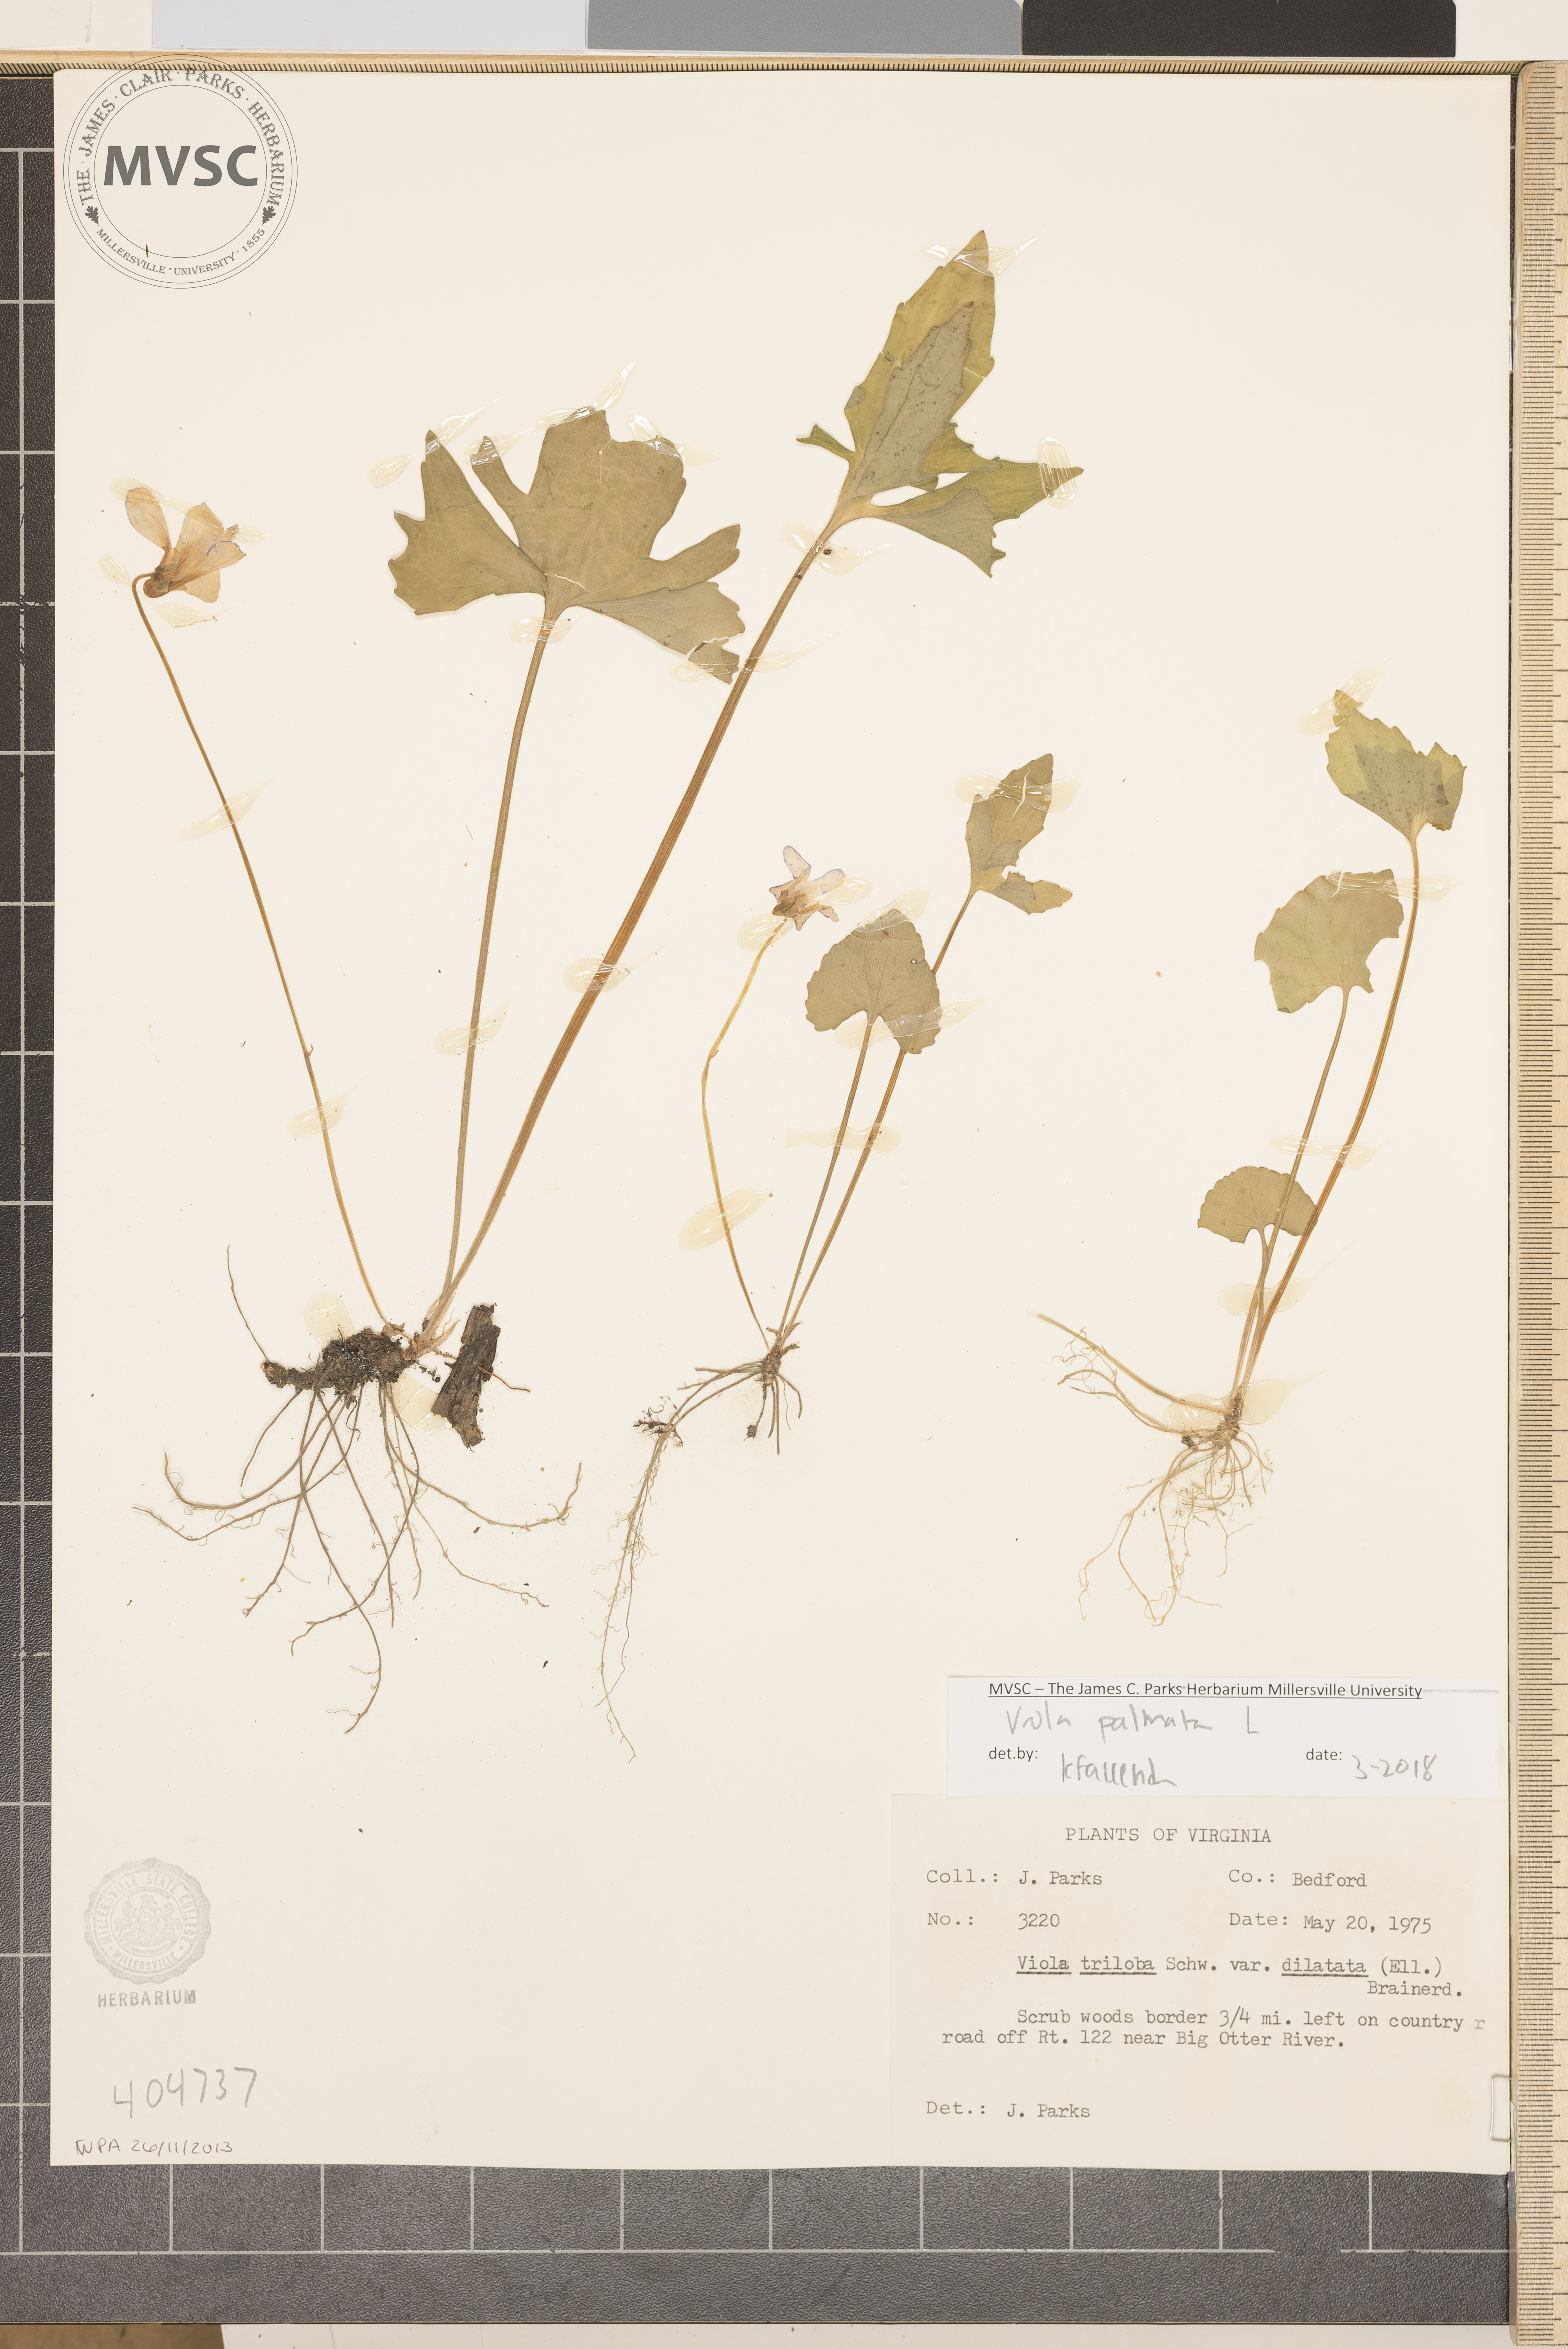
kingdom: Plantae
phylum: Tracheophyta
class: Magnoliopsida
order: Malpighiales
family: Violaceae
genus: Viola
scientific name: Viola palmata
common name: Early blue violet
